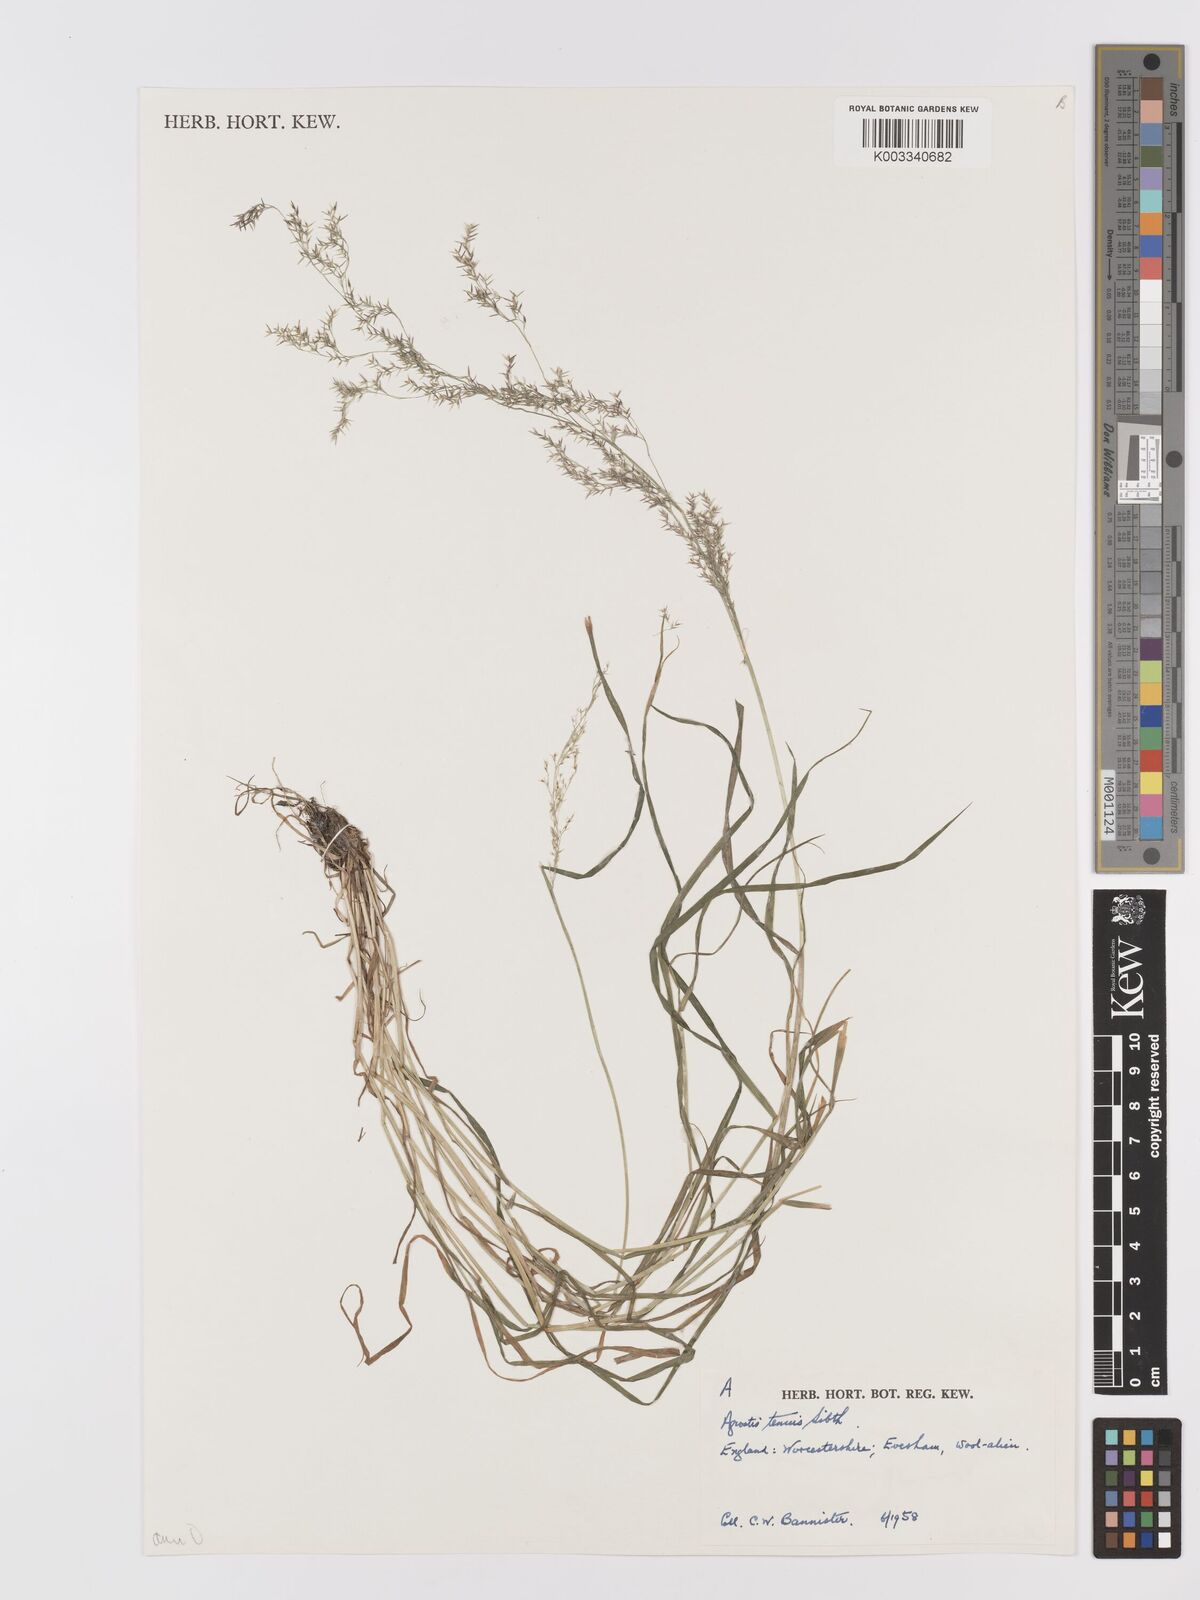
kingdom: Plantae
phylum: Tracheophyta
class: Liliopsida
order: Poales
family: Poaceae
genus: Agrostis
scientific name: Agrostis capillaris
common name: Colonial bentgrass
